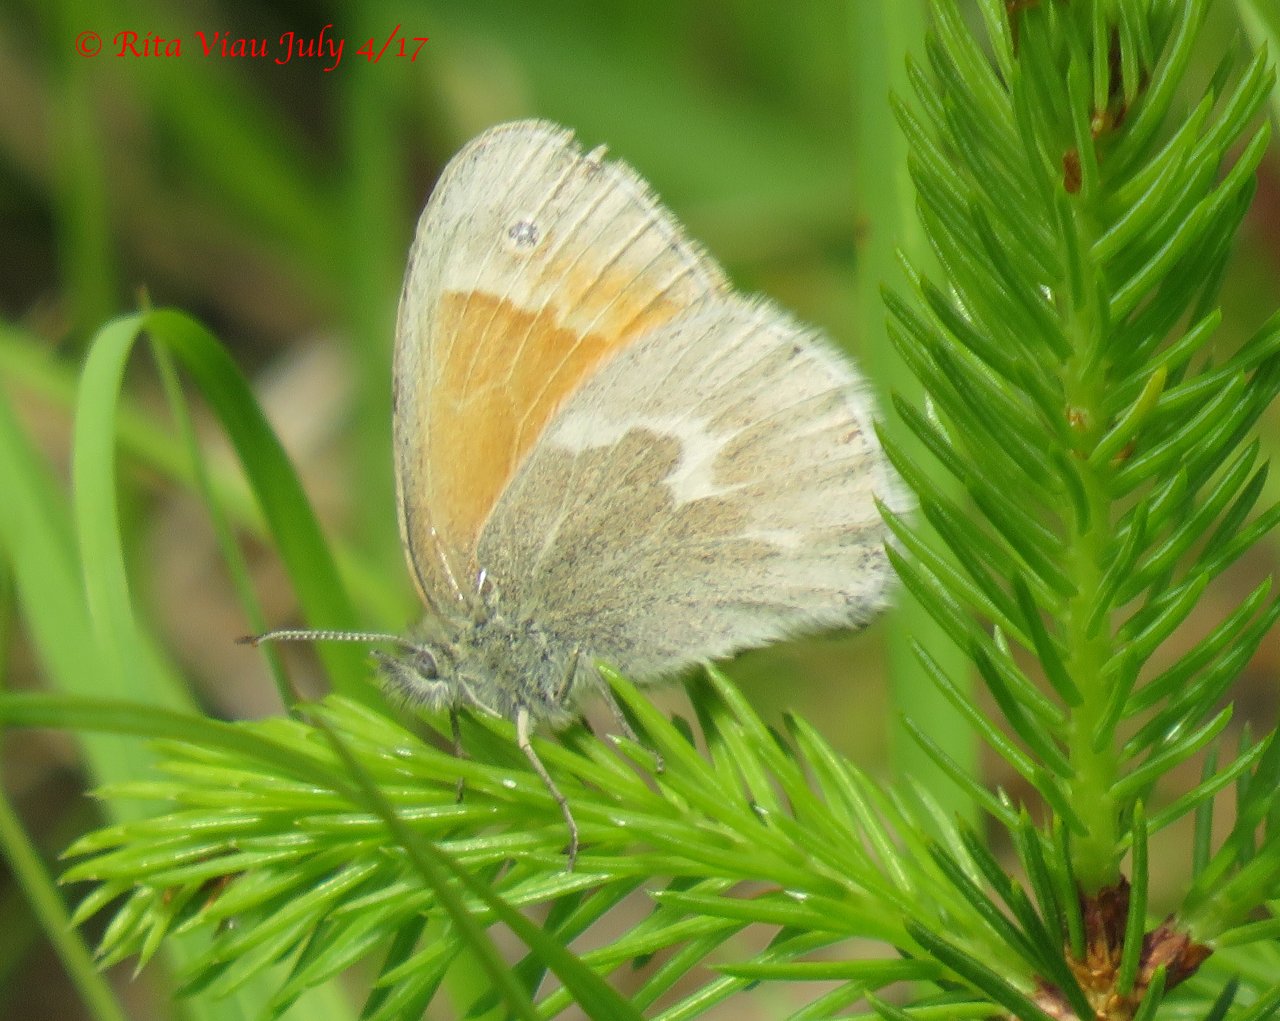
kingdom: Animalia
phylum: Arthropoda
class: Insecta
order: Lepidoptera
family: Nymphalidae
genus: Coenonympha
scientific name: Coenonympha tullia
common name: Large Heath
